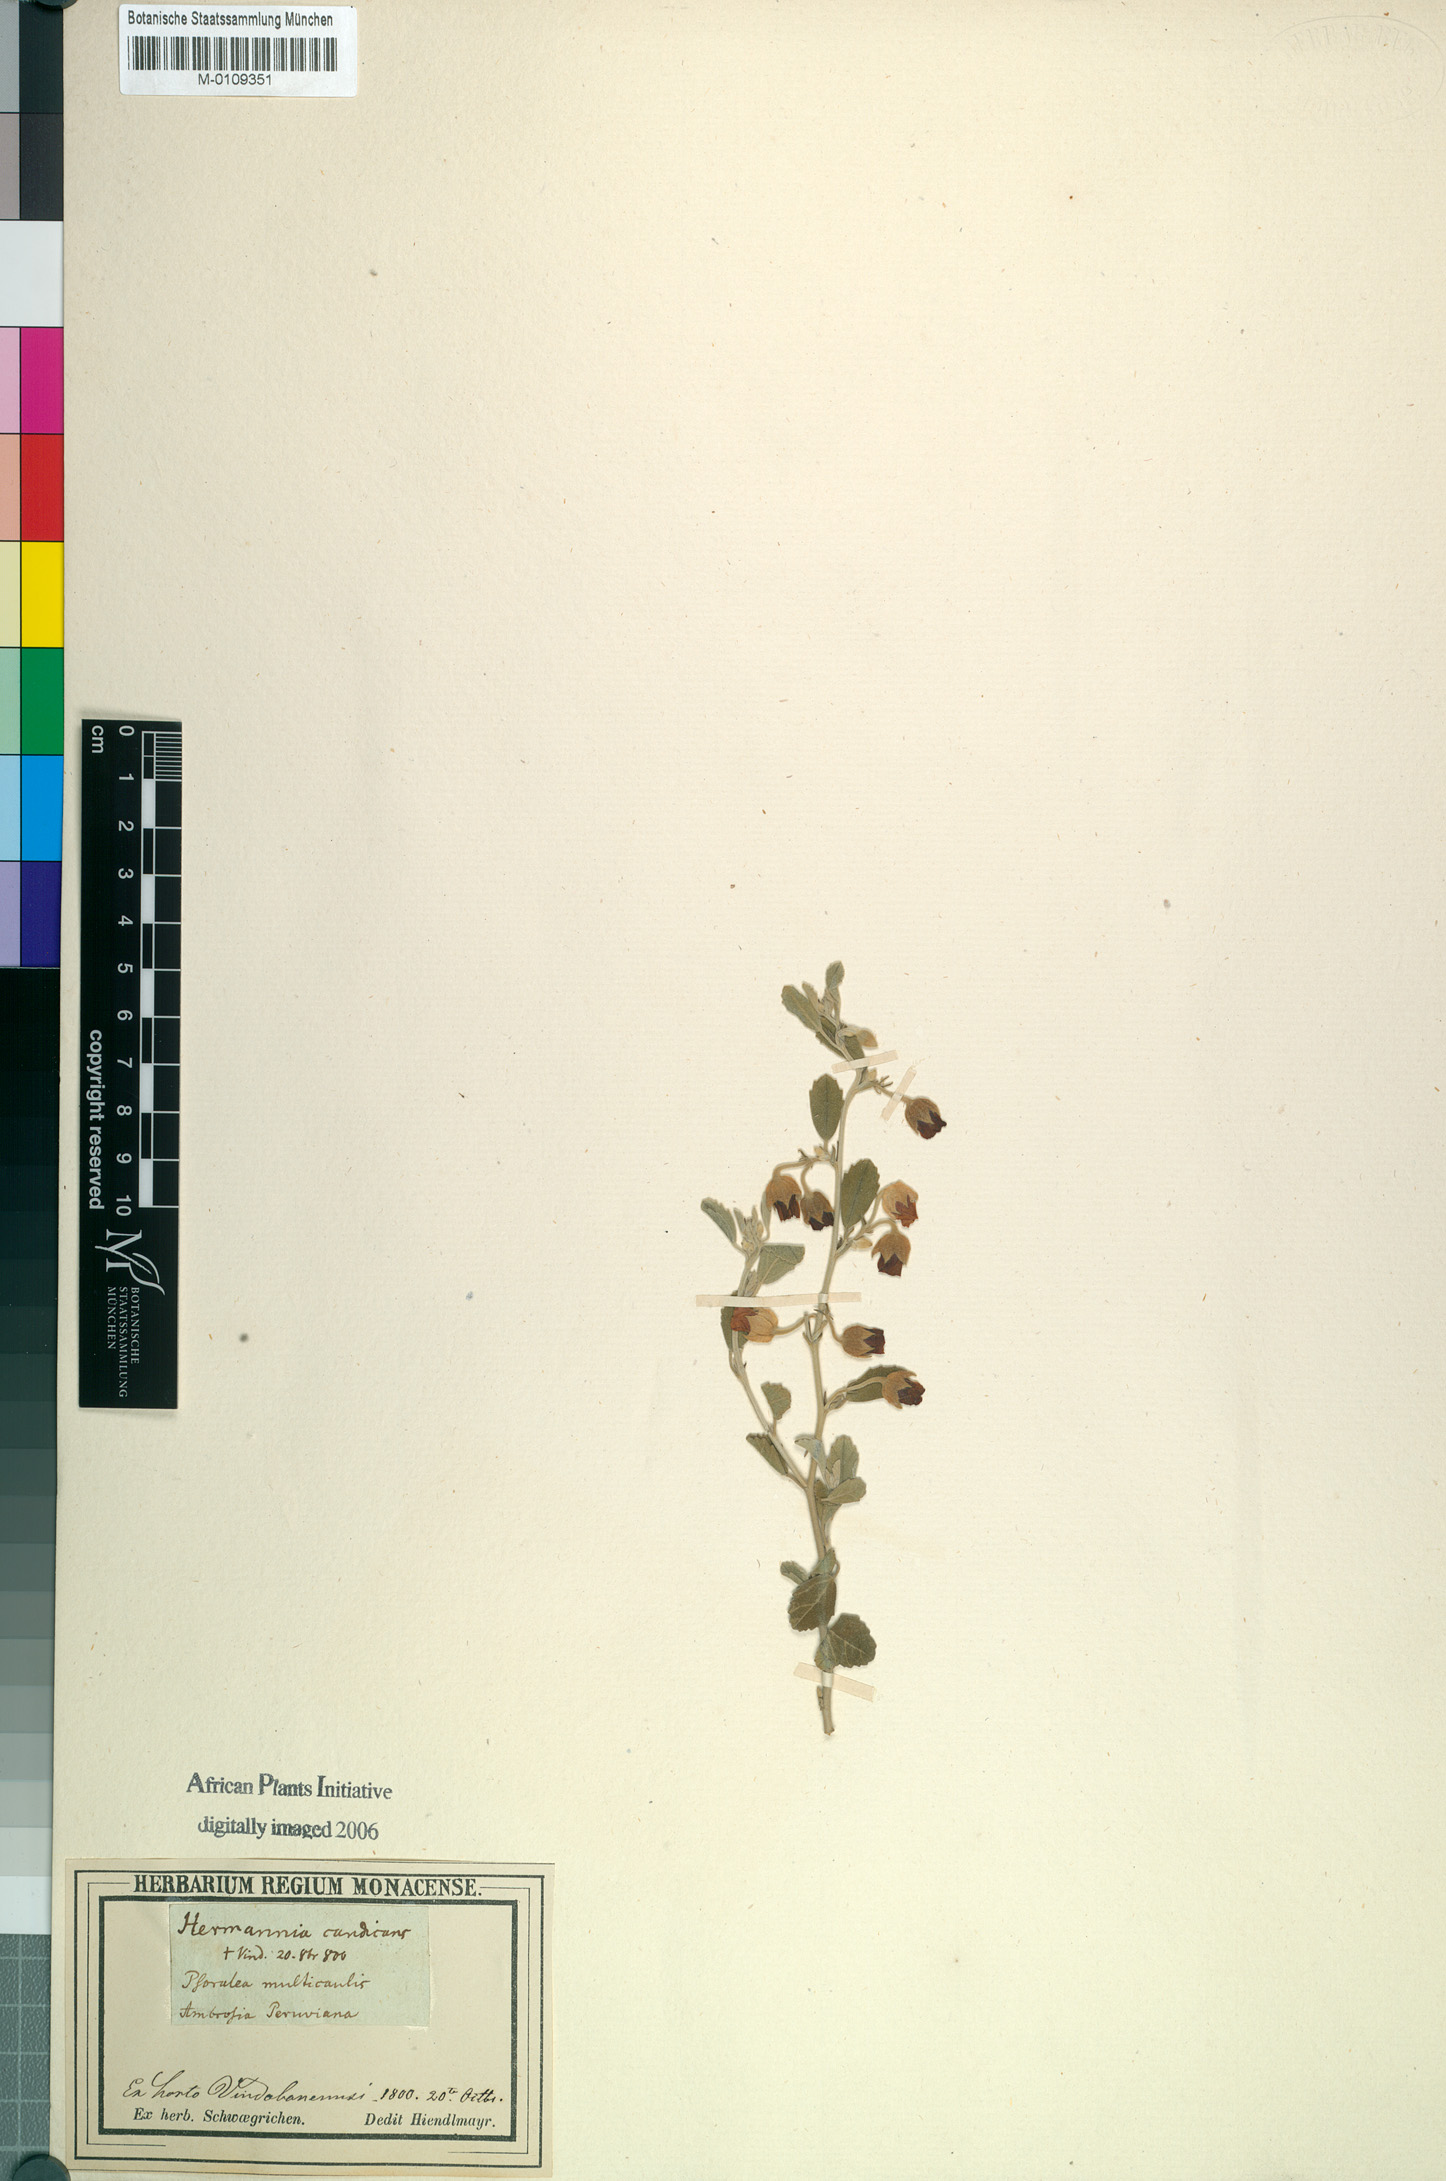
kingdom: Plantae
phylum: Tracheophyta
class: Magnoliopsida
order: Malvales
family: Malvaceae
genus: Hermannia
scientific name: Hermannia incana
